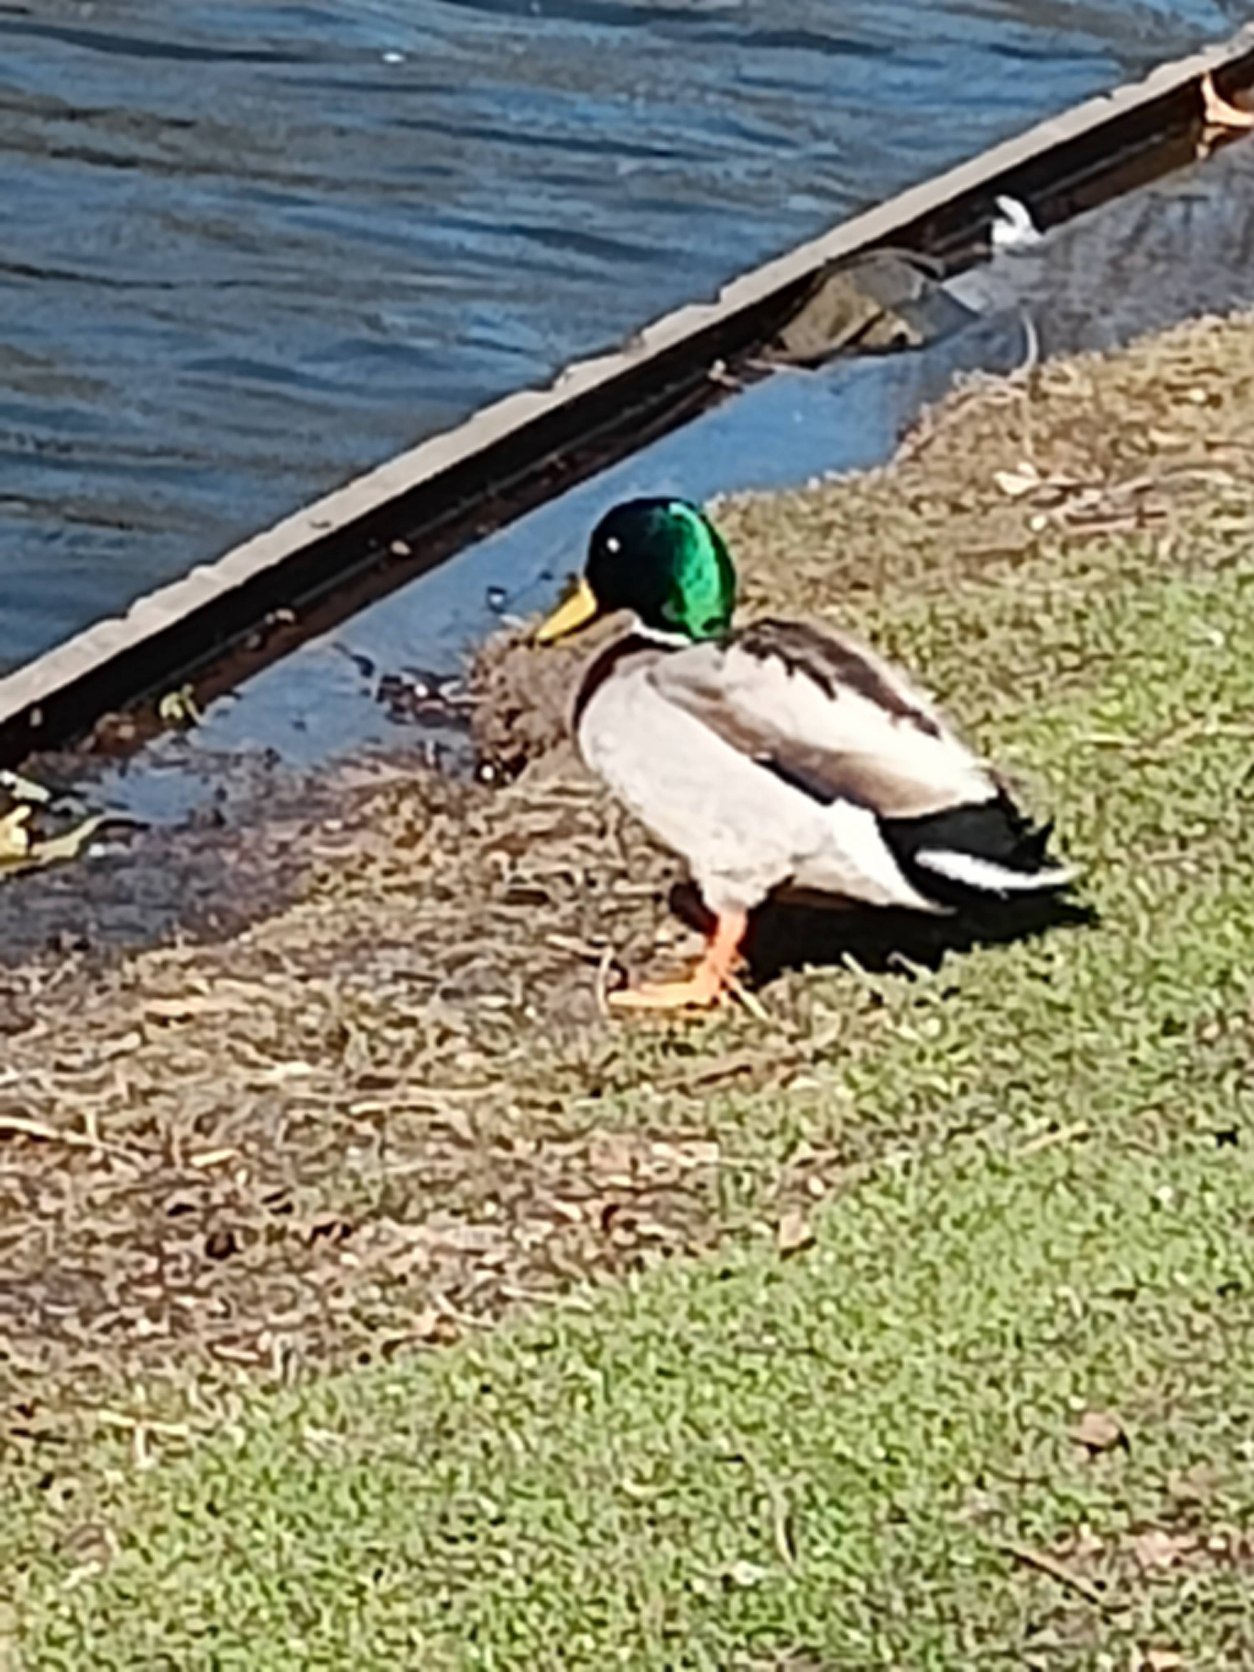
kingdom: Animalia
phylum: Chordata
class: Aves
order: Anseriformes
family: Anatidae
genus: Anas
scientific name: Anas platyrhynchos
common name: Gråand
